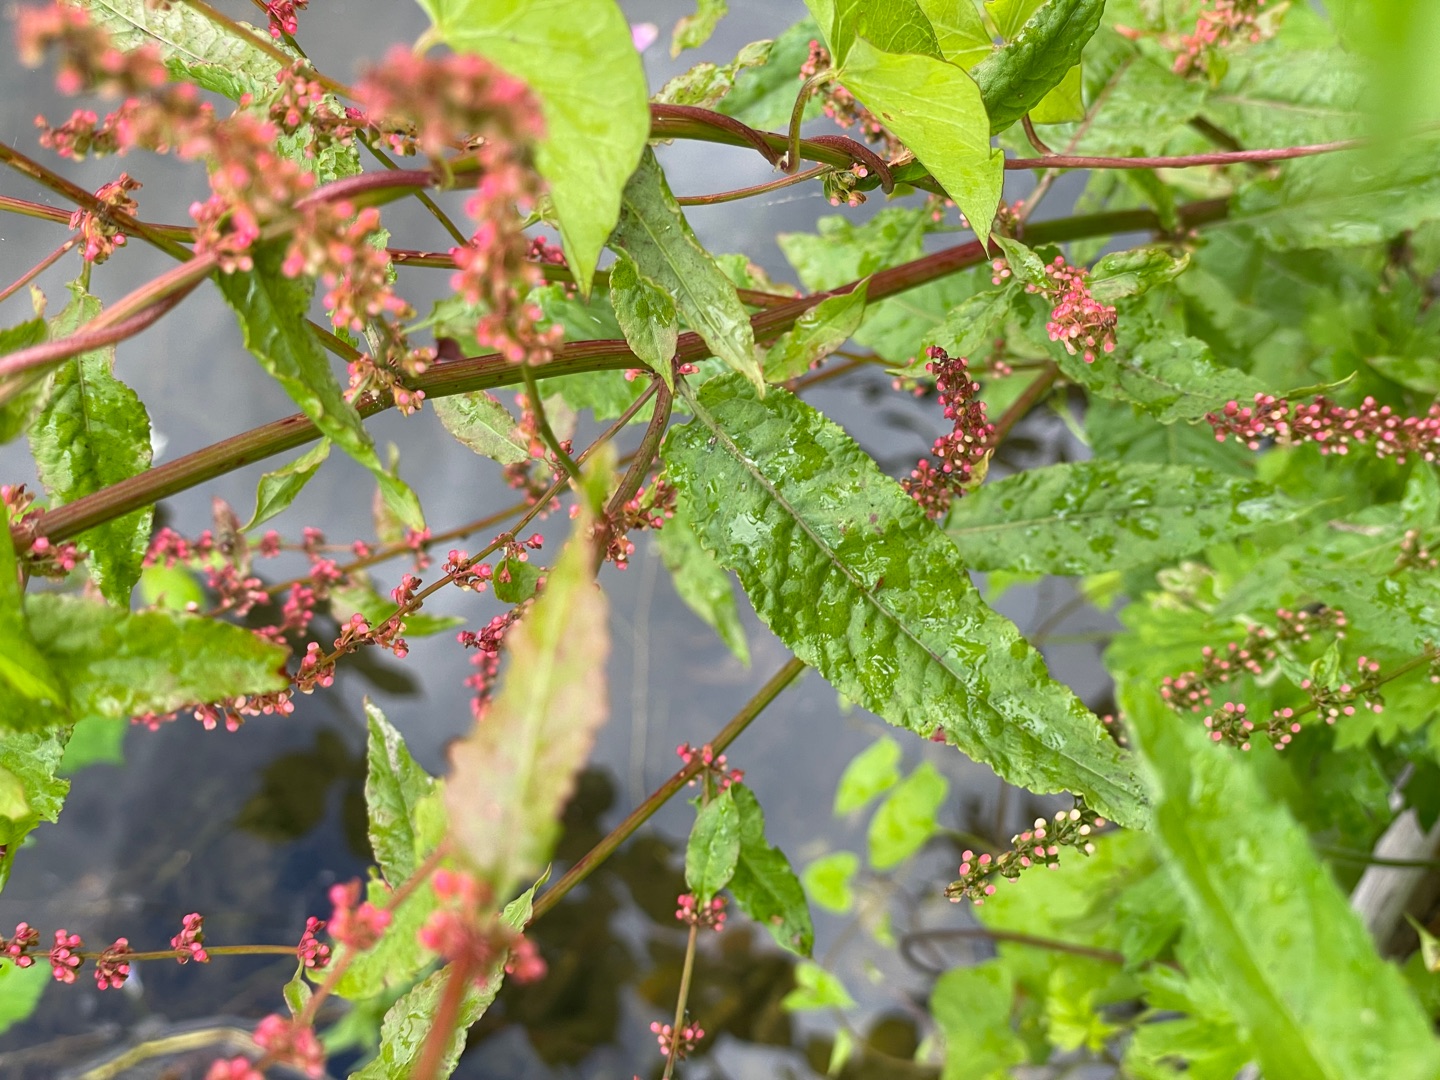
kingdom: Plantae
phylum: Tracheophyta
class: Magnoliopsida
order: Caryophyllales
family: Polygonaceae
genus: Rumex
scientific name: Rumex sanguineus
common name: Skov-skræppe
